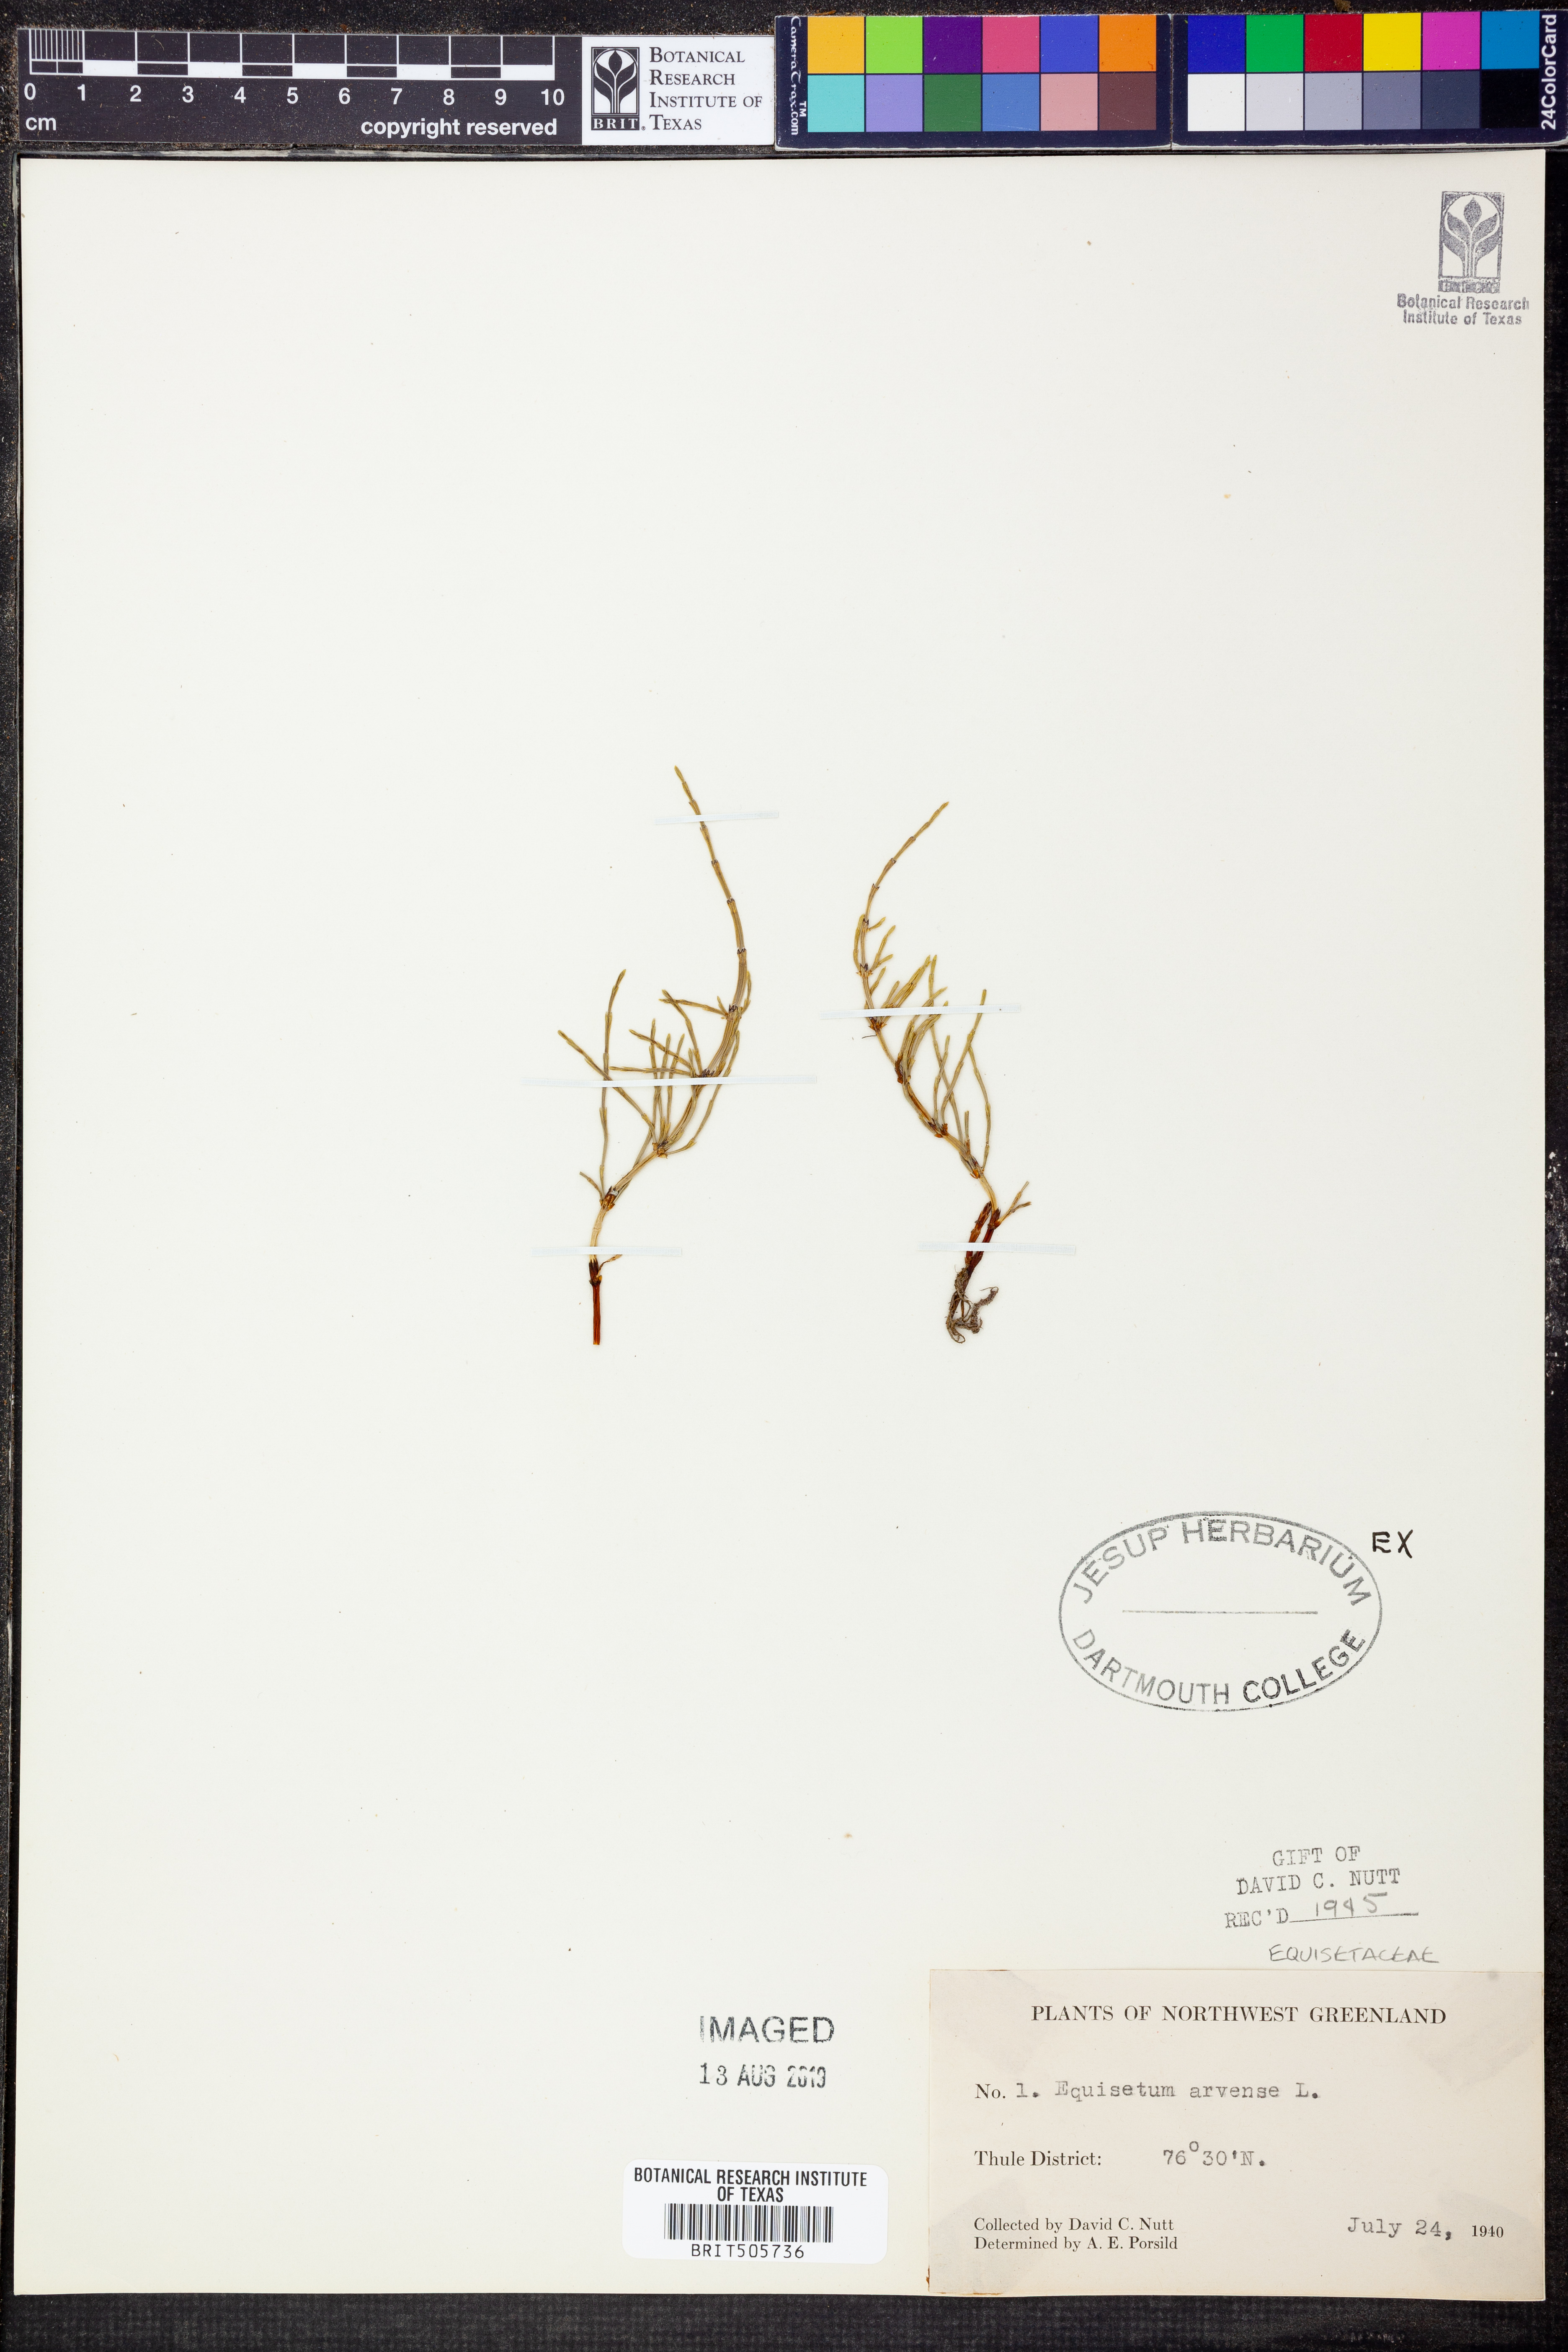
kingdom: Plantae
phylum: Tracheophyta
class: Polypodiopsida
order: Equisetales
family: Equisetaceae
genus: Equisetum
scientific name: Equisetum arvense
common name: Field horsetail
